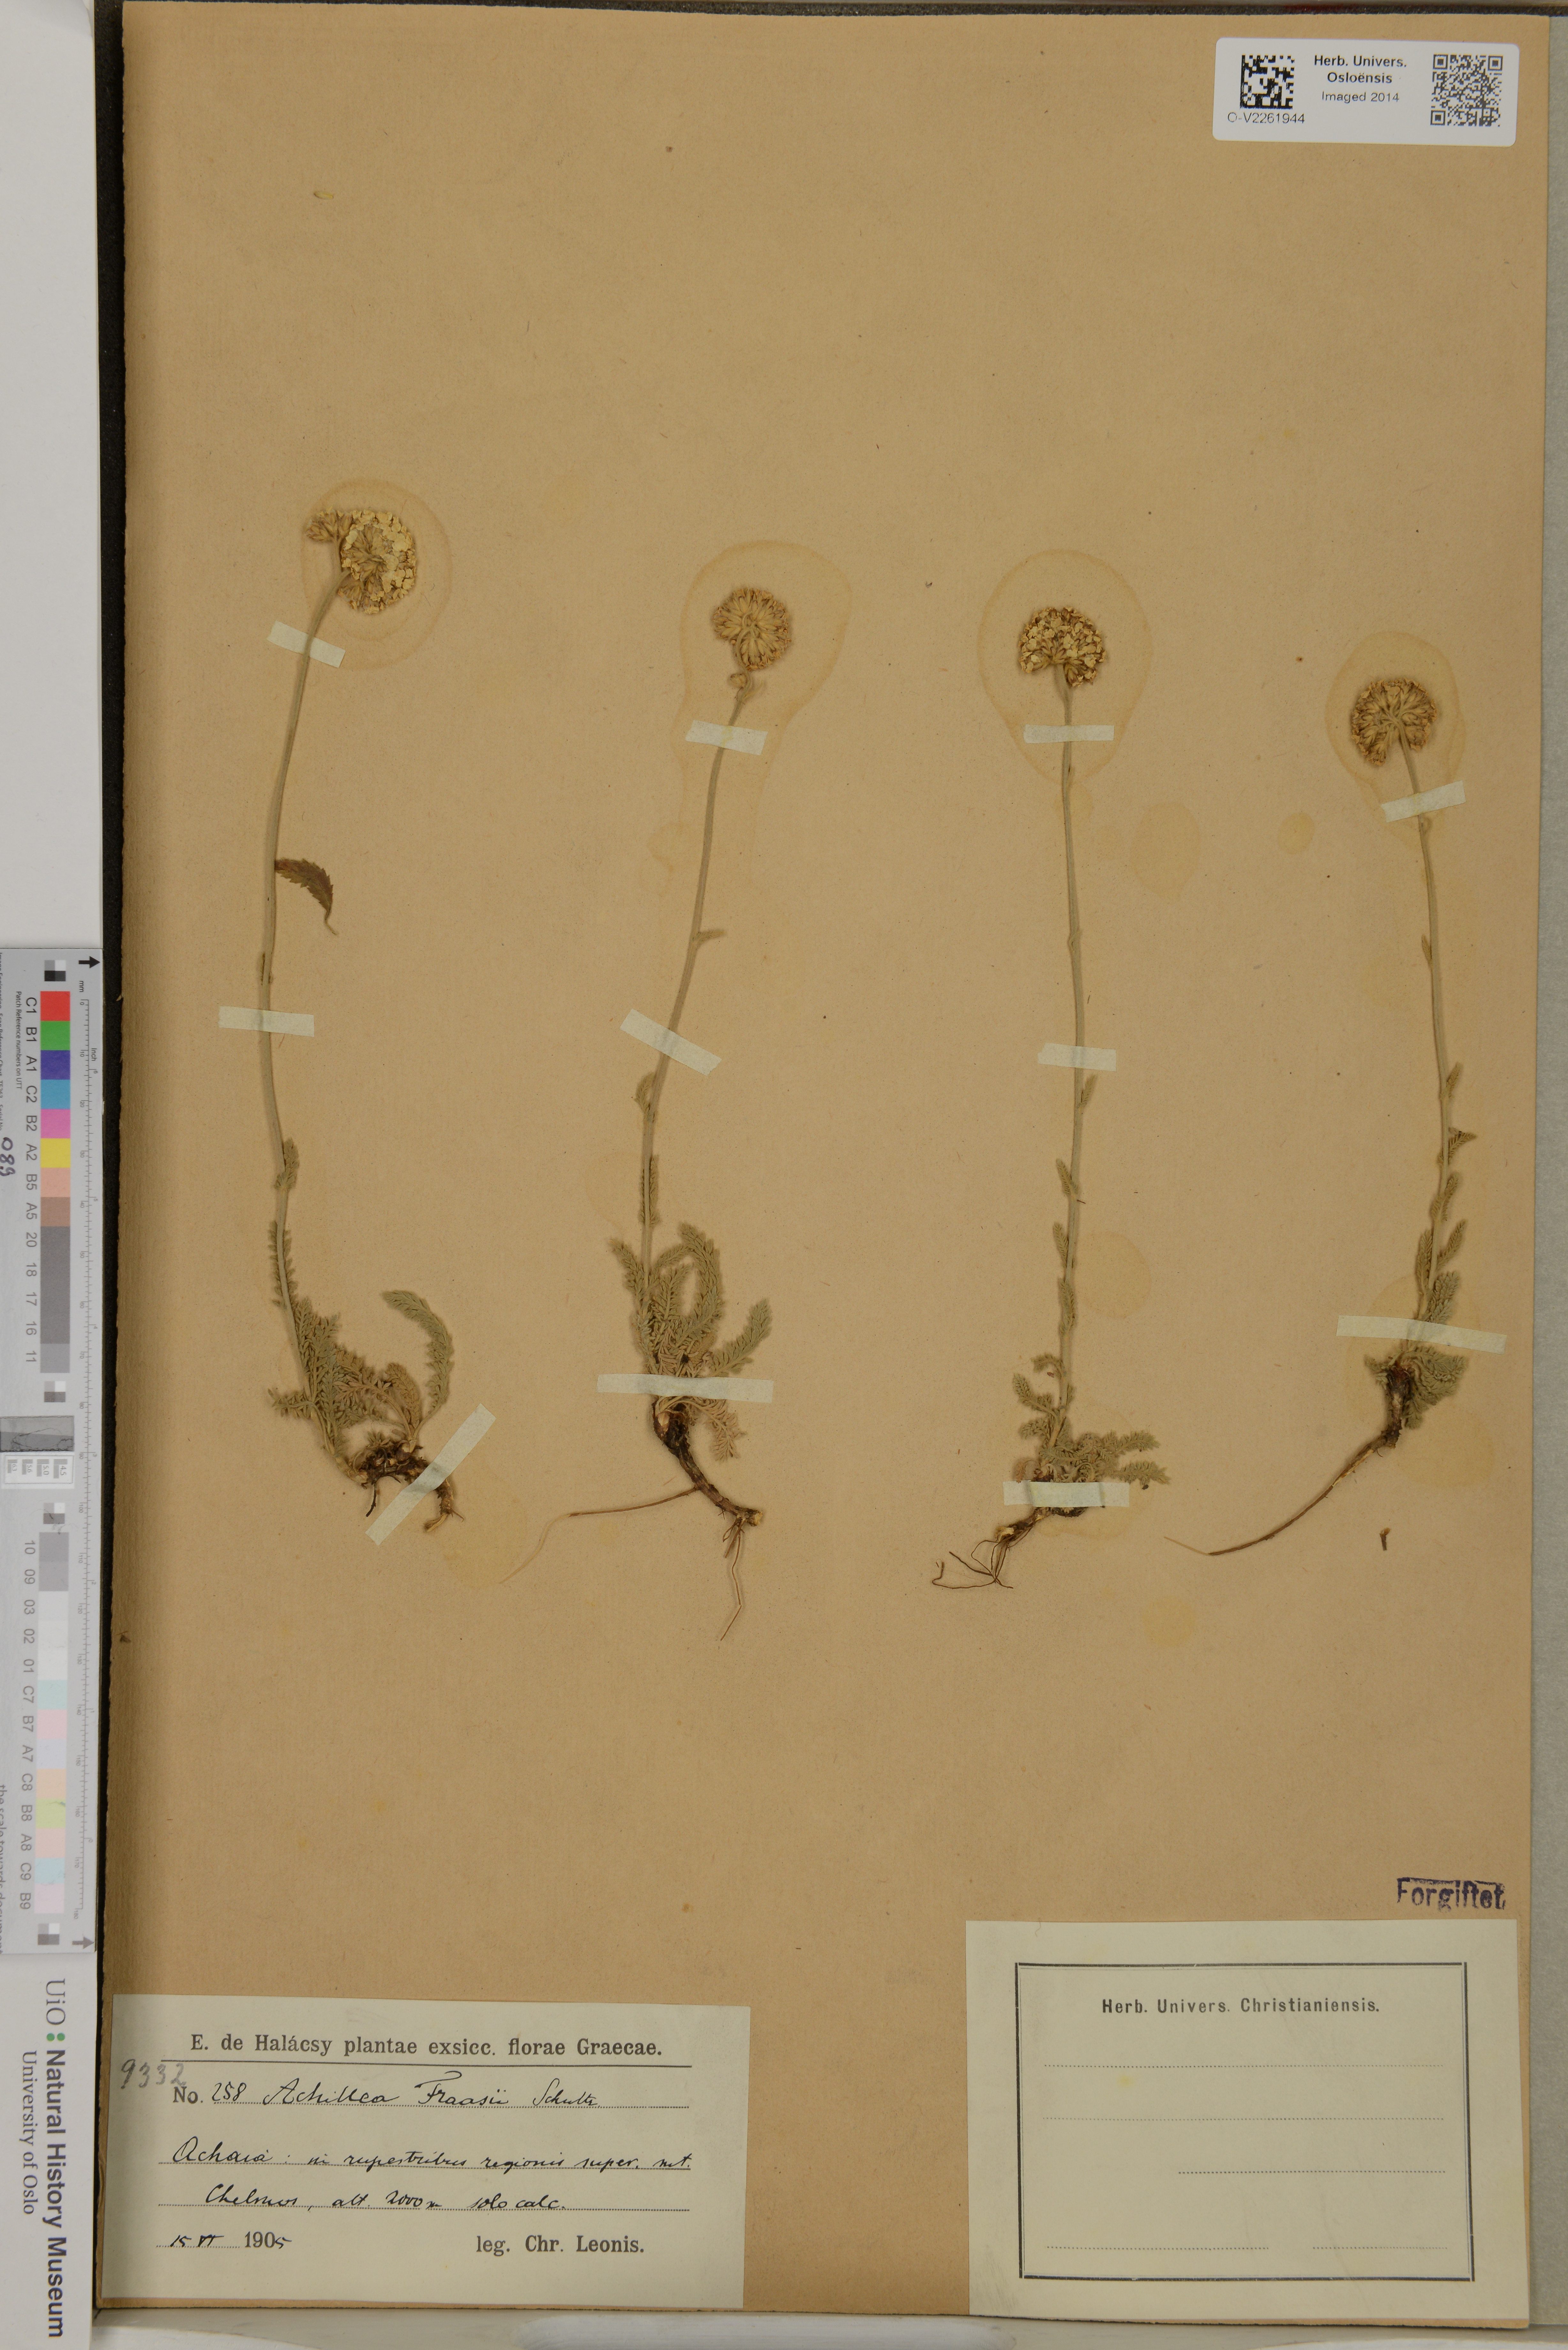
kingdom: Plantae
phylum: Tracheophyta
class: Magnoliopsida
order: Asterales
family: Asteraceae
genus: Achillea
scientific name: Achillea fraasii
